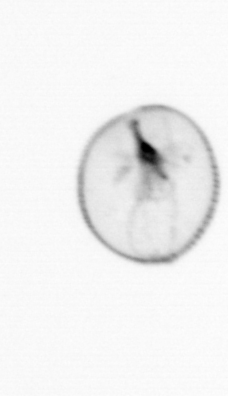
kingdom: Chromista
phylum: Myzozoa
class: Dinophyceae
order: Noctilucales
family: Noctilucaceae
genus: Noctiluca
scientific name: Noctiluca scintillans
